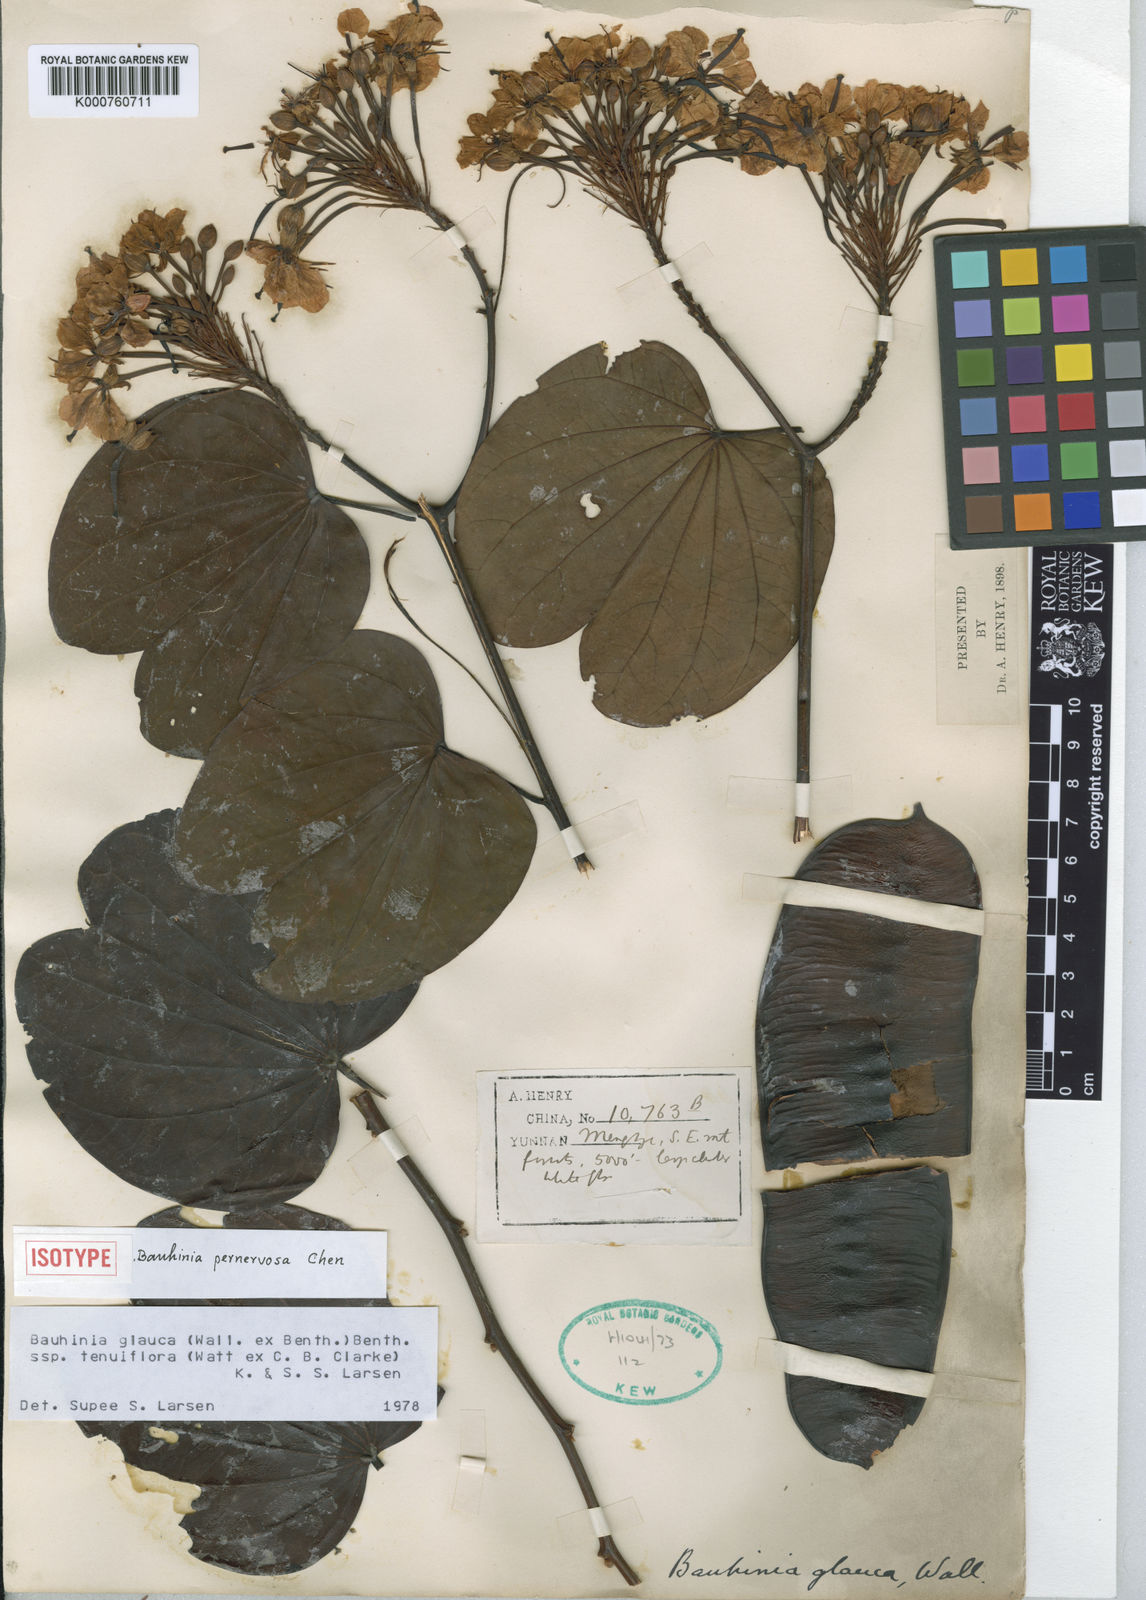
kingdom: Plantae
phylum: Tracheophyta
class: Magnoliopsida
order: Fabales
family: Fabaceae
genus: Cheniella
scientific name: Cheniella tenuiflora
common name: Bauhinia
